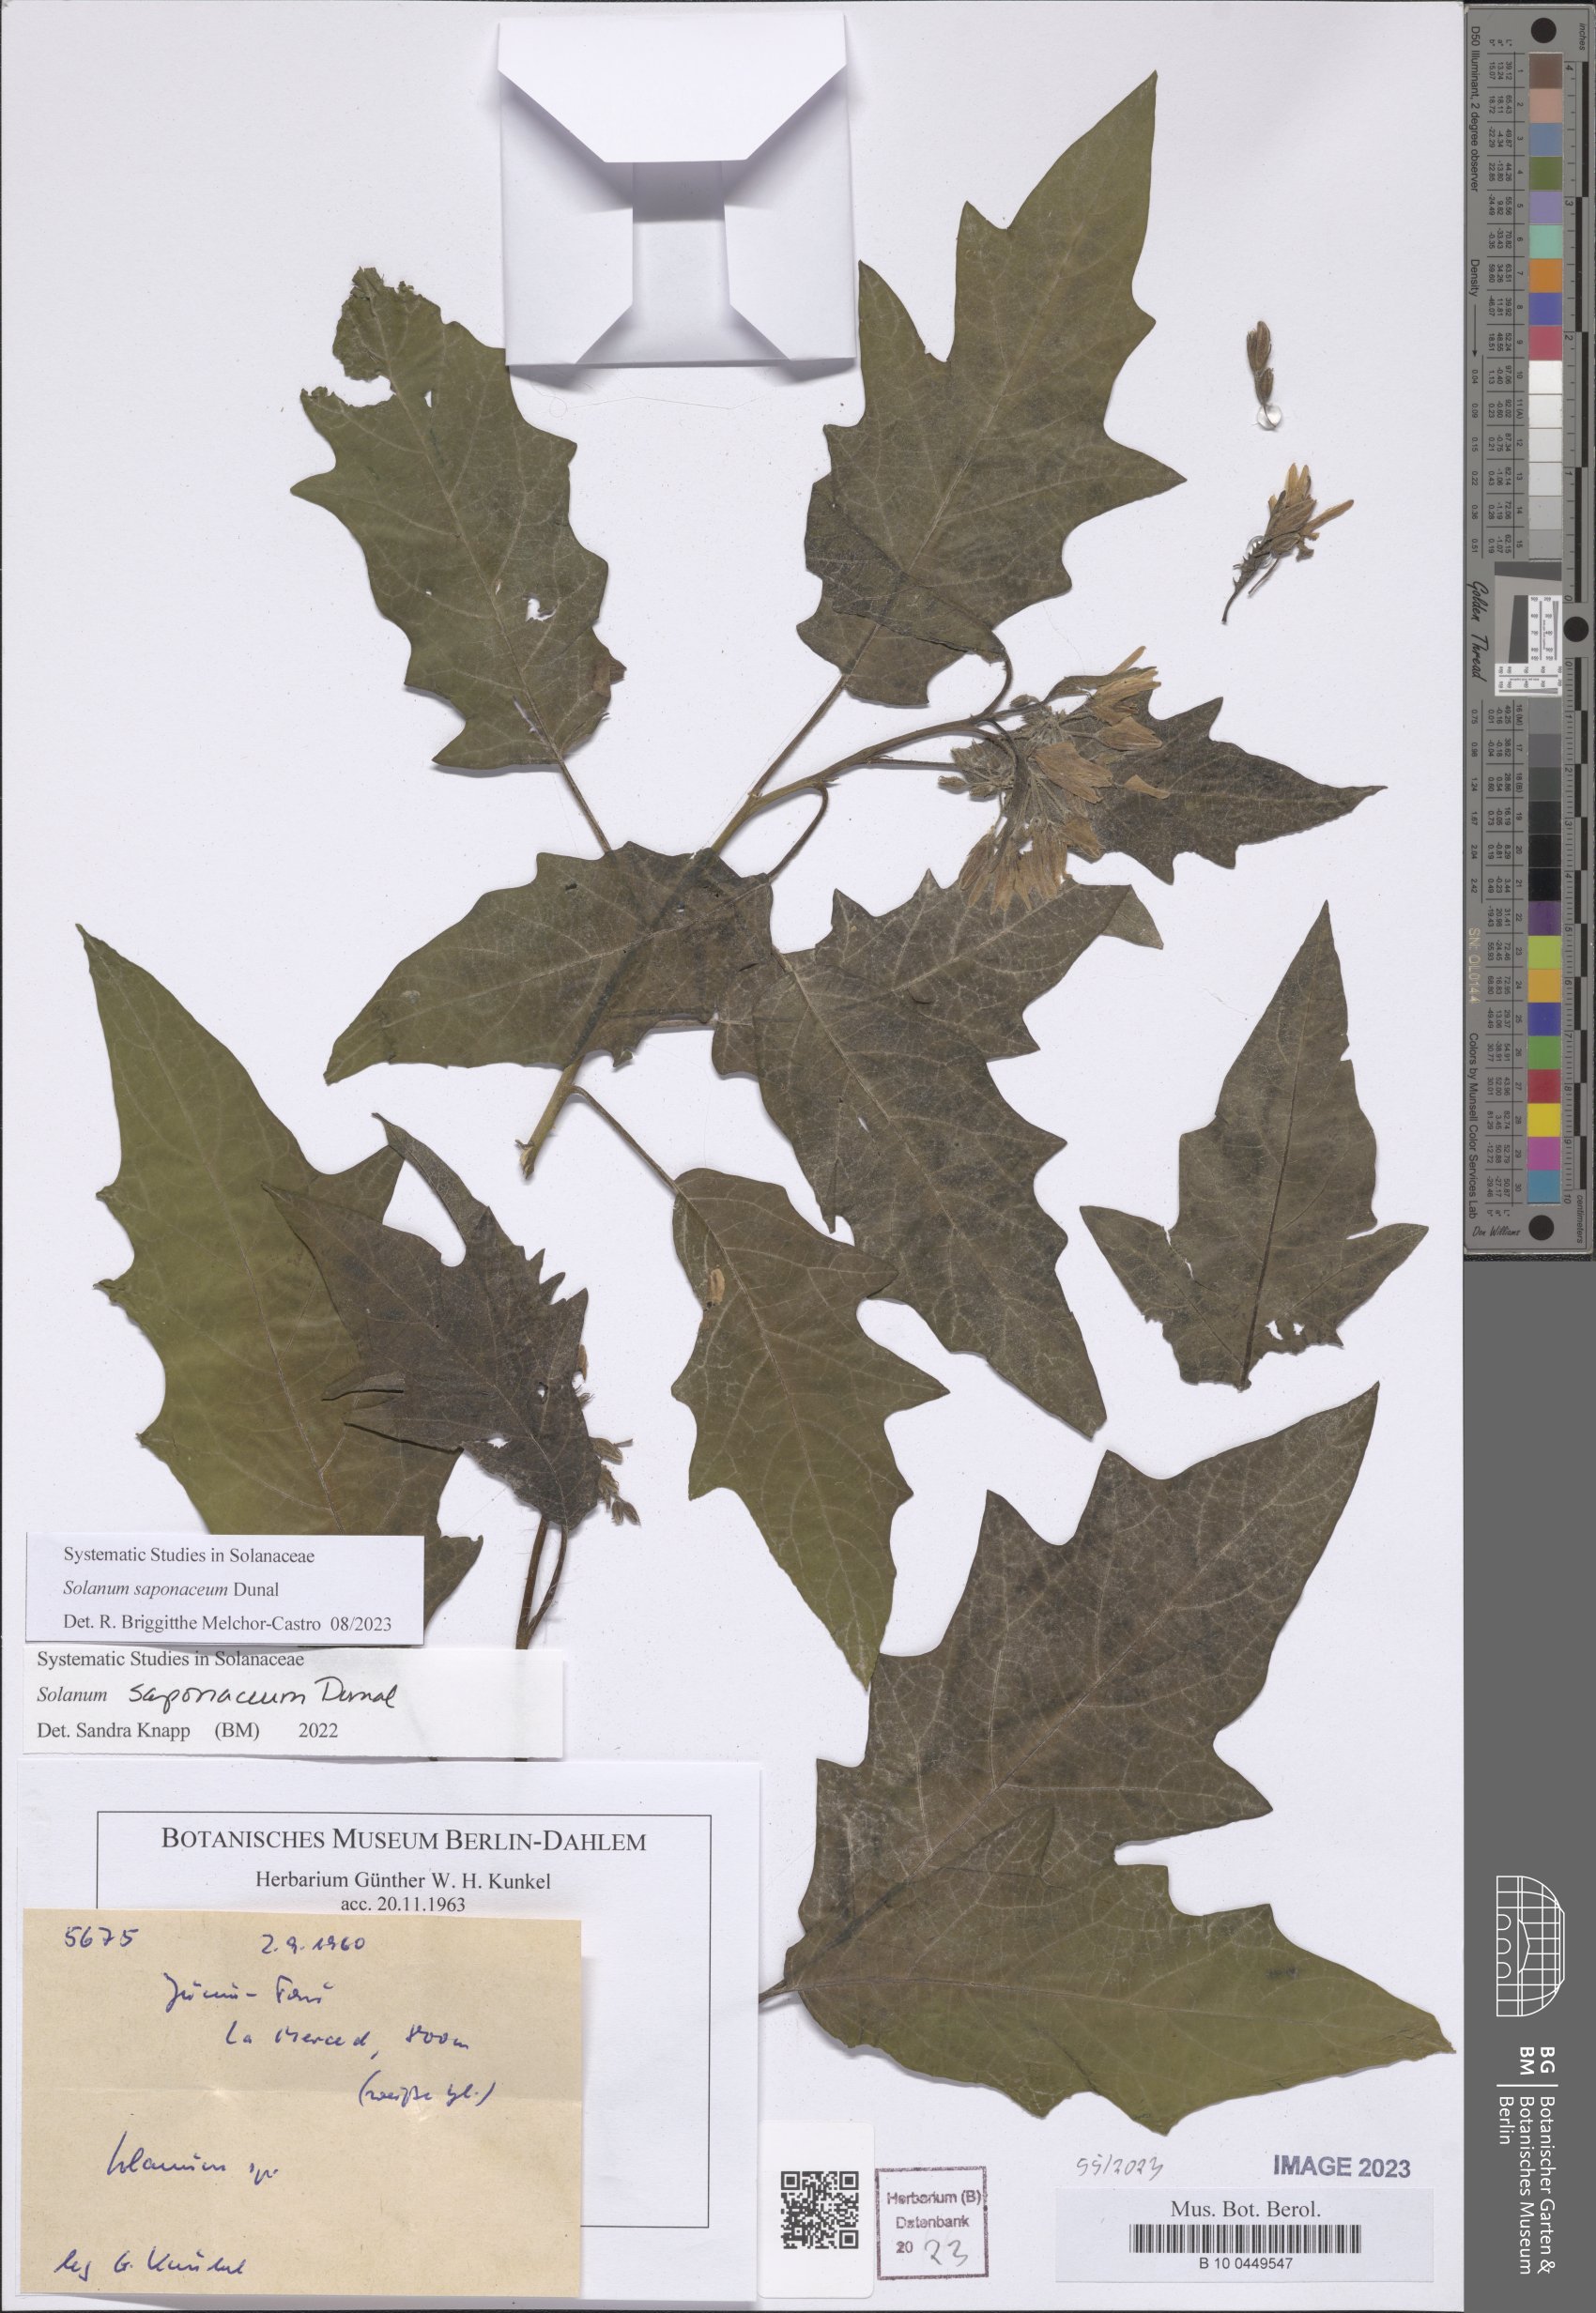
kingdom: Plantae
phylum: Tracheophyta
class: Magnoliopsida
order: Solanales
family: Solanaceae
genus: Solanum
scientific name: Solanum saponaceum
